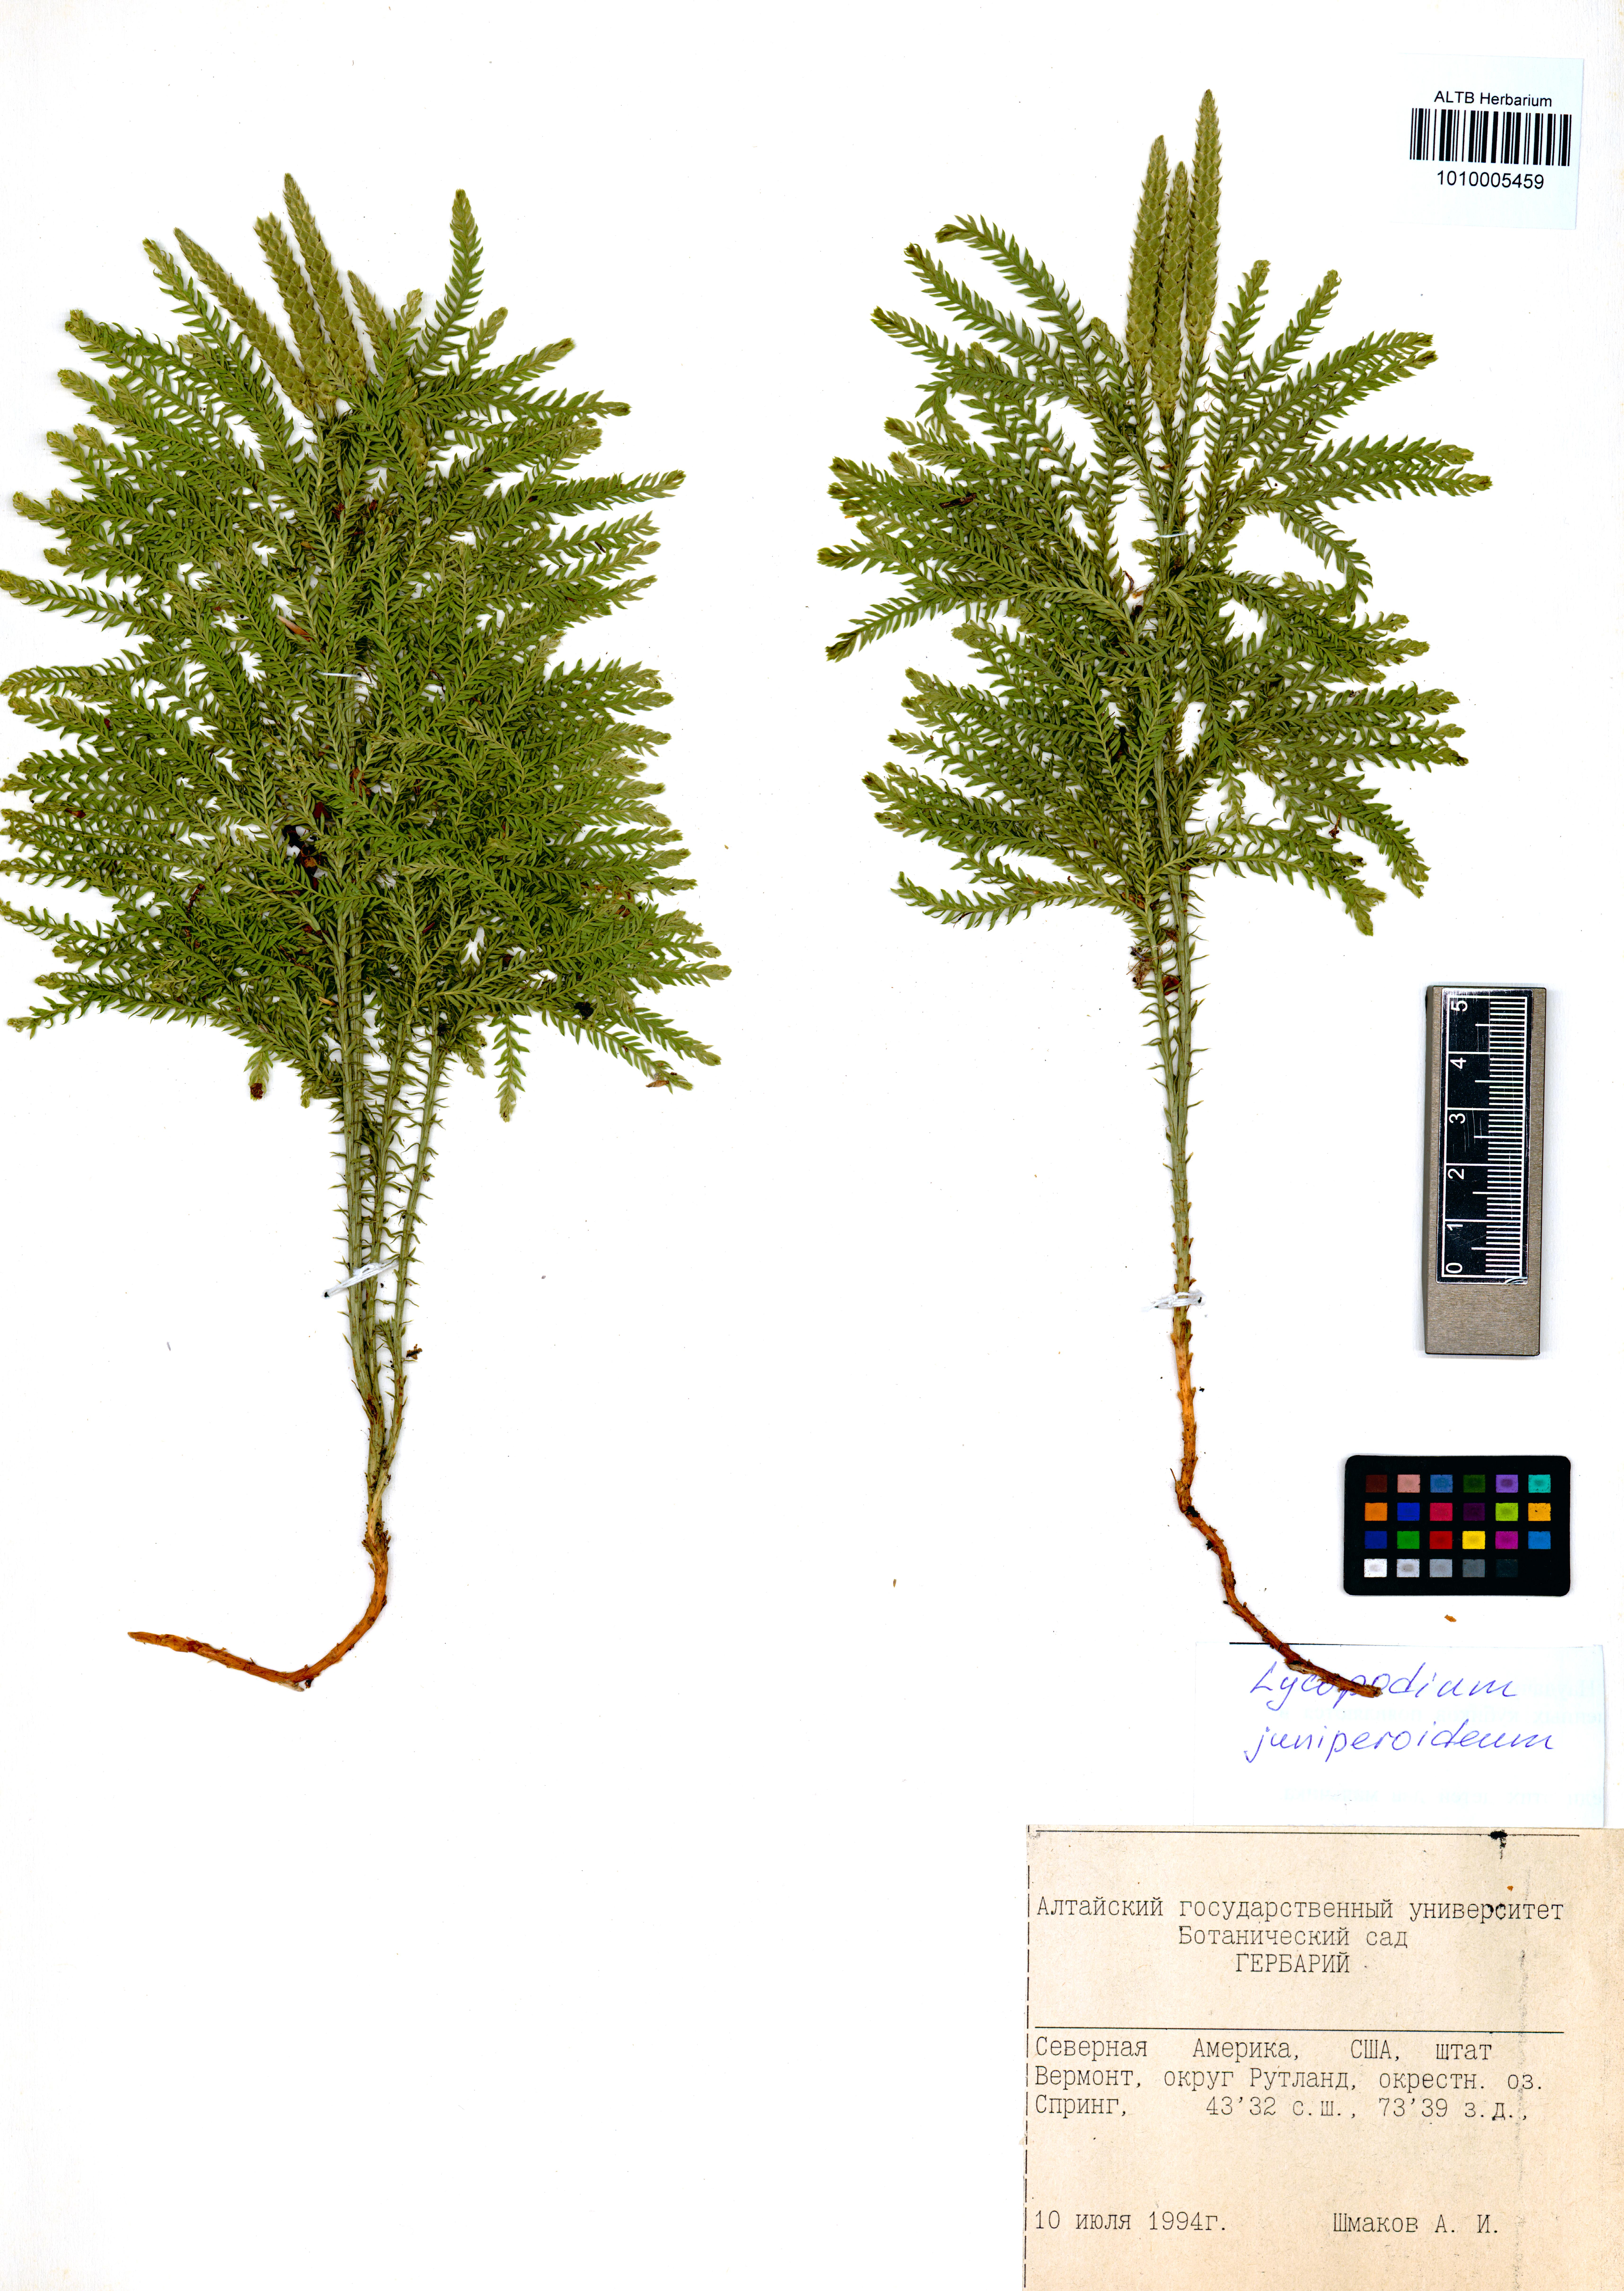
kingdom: Plantae
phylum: Tracheophyta
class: Lycopodiopsida
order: Lycopodiales
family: Lycopodiaceae
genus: Dendrolycopodium
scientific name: Dendrolycopodium juniperoideum
